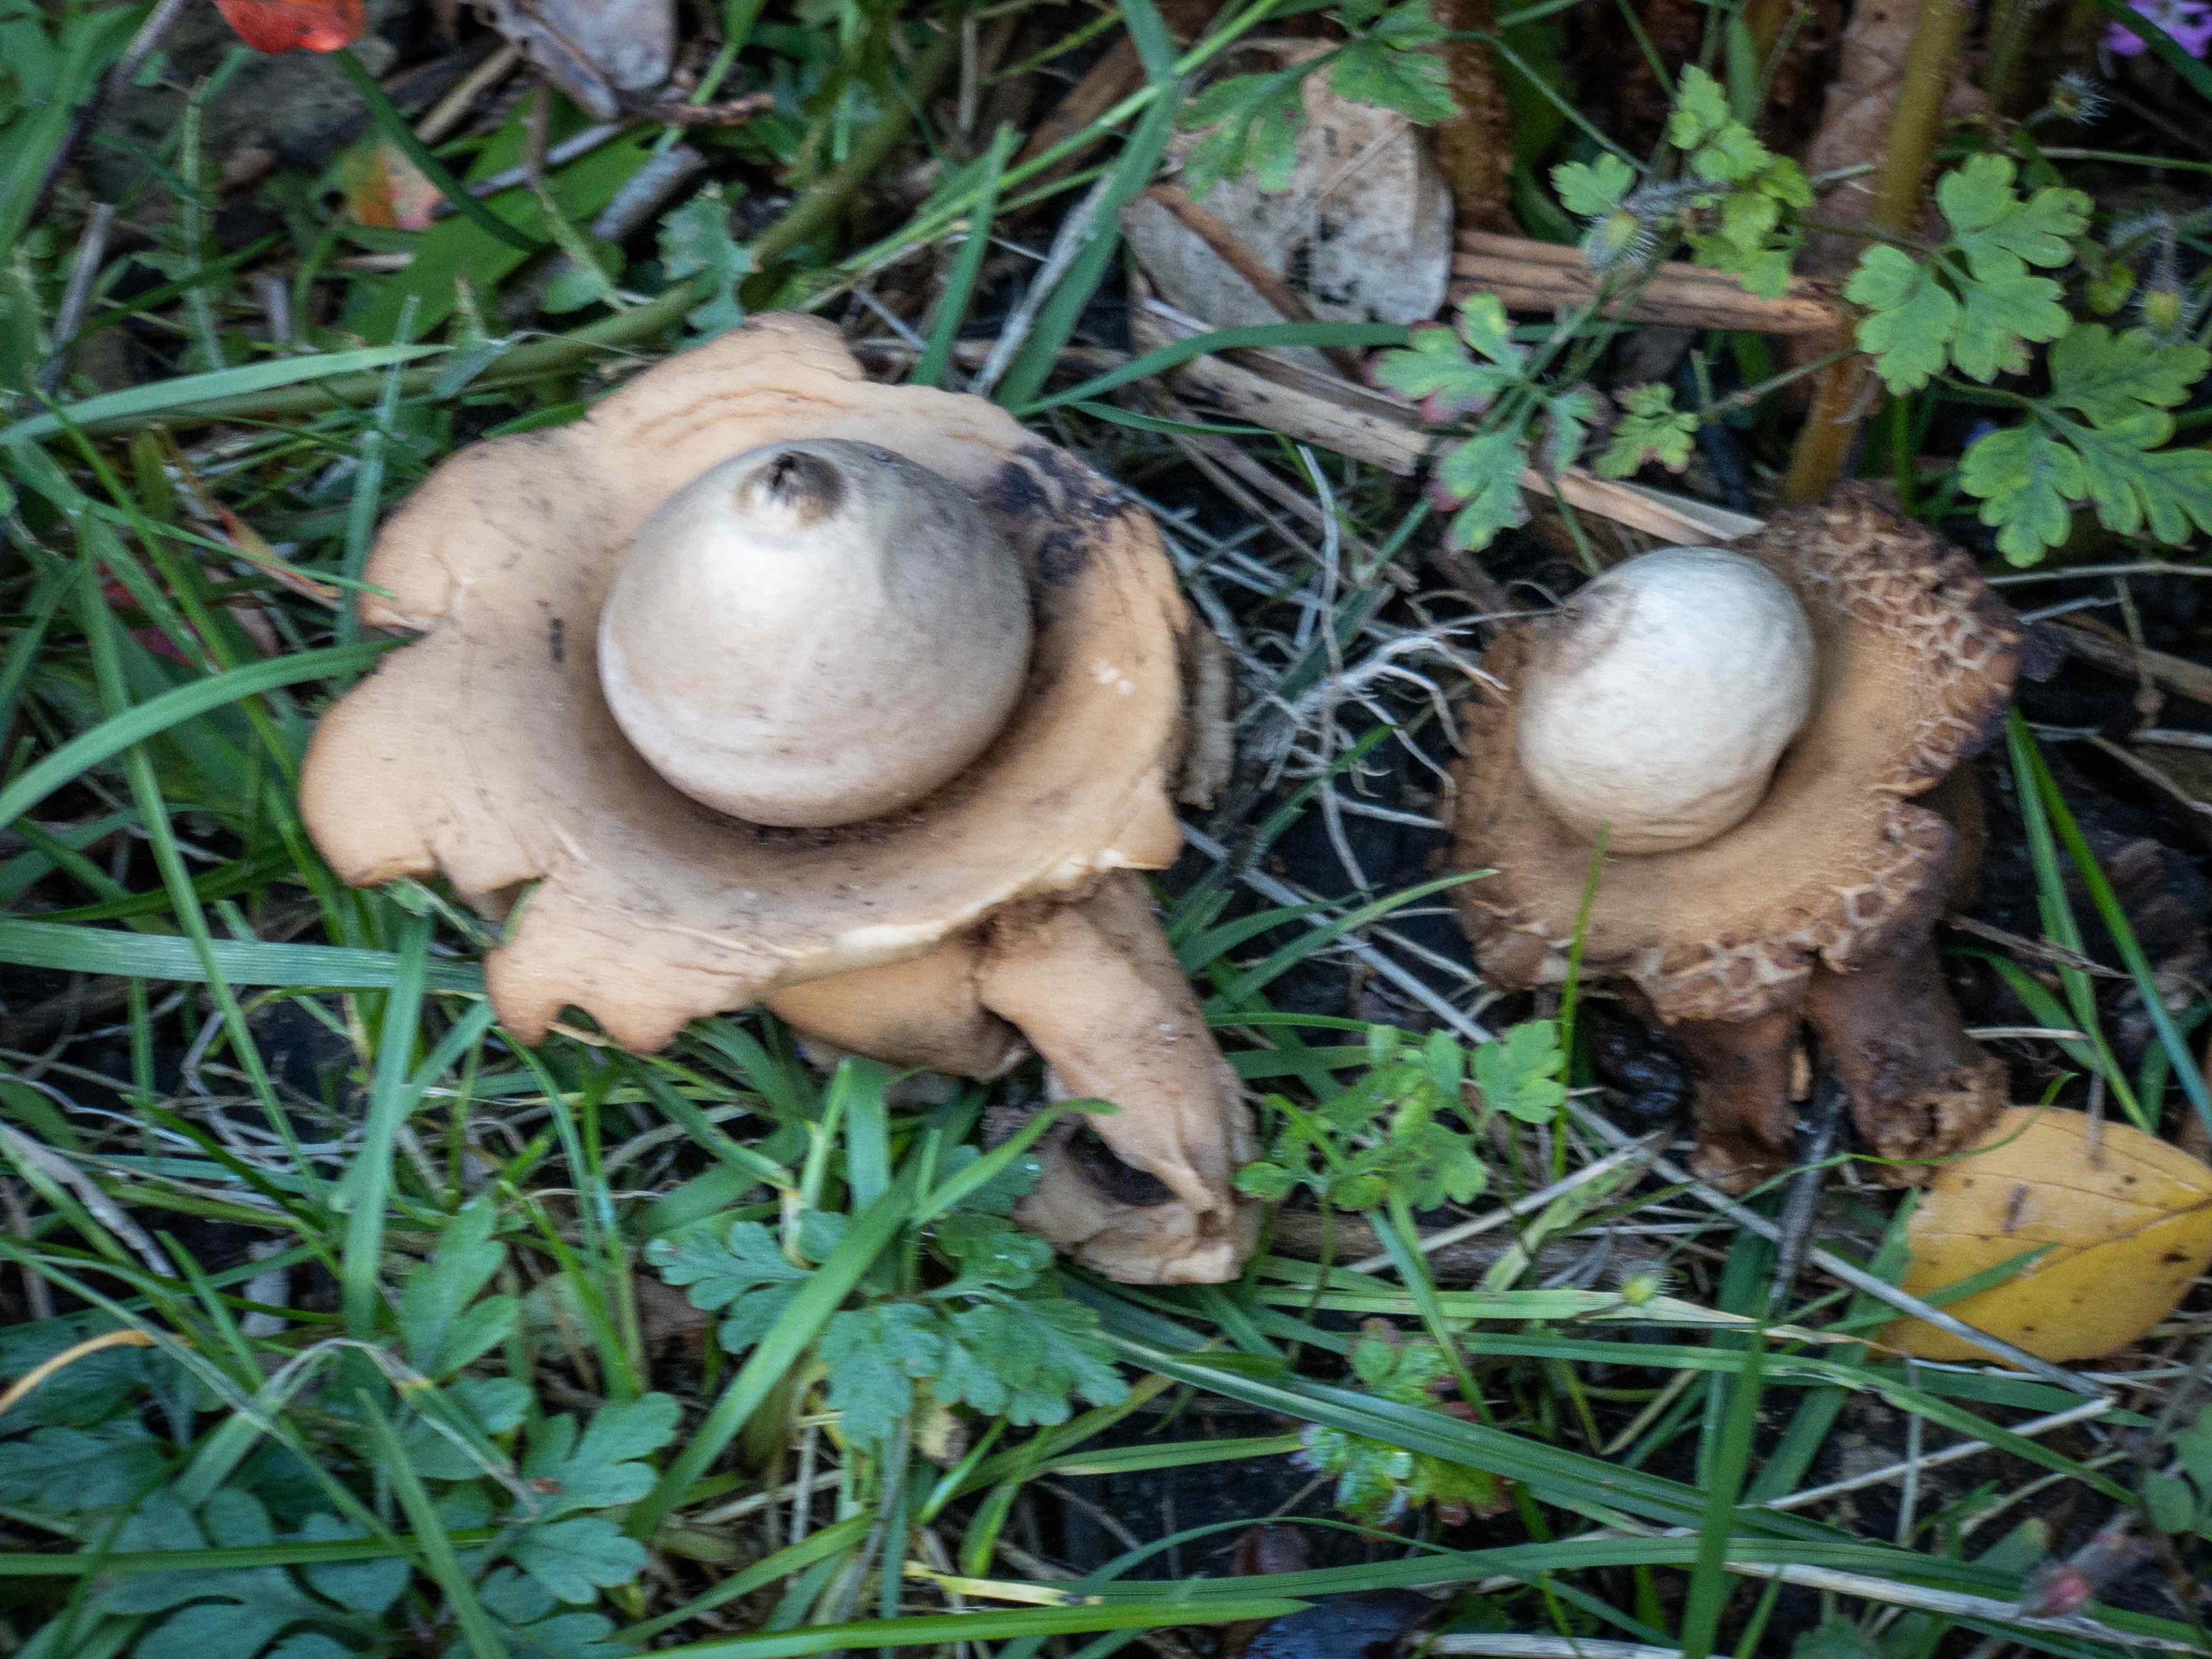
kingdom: Fungi
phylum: Basidiomycota
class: Agaricomycetes
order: Geastrales
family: Geastraceae
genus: Geastrum
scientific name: Geastrum michelianum
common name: kødet stjernebold
